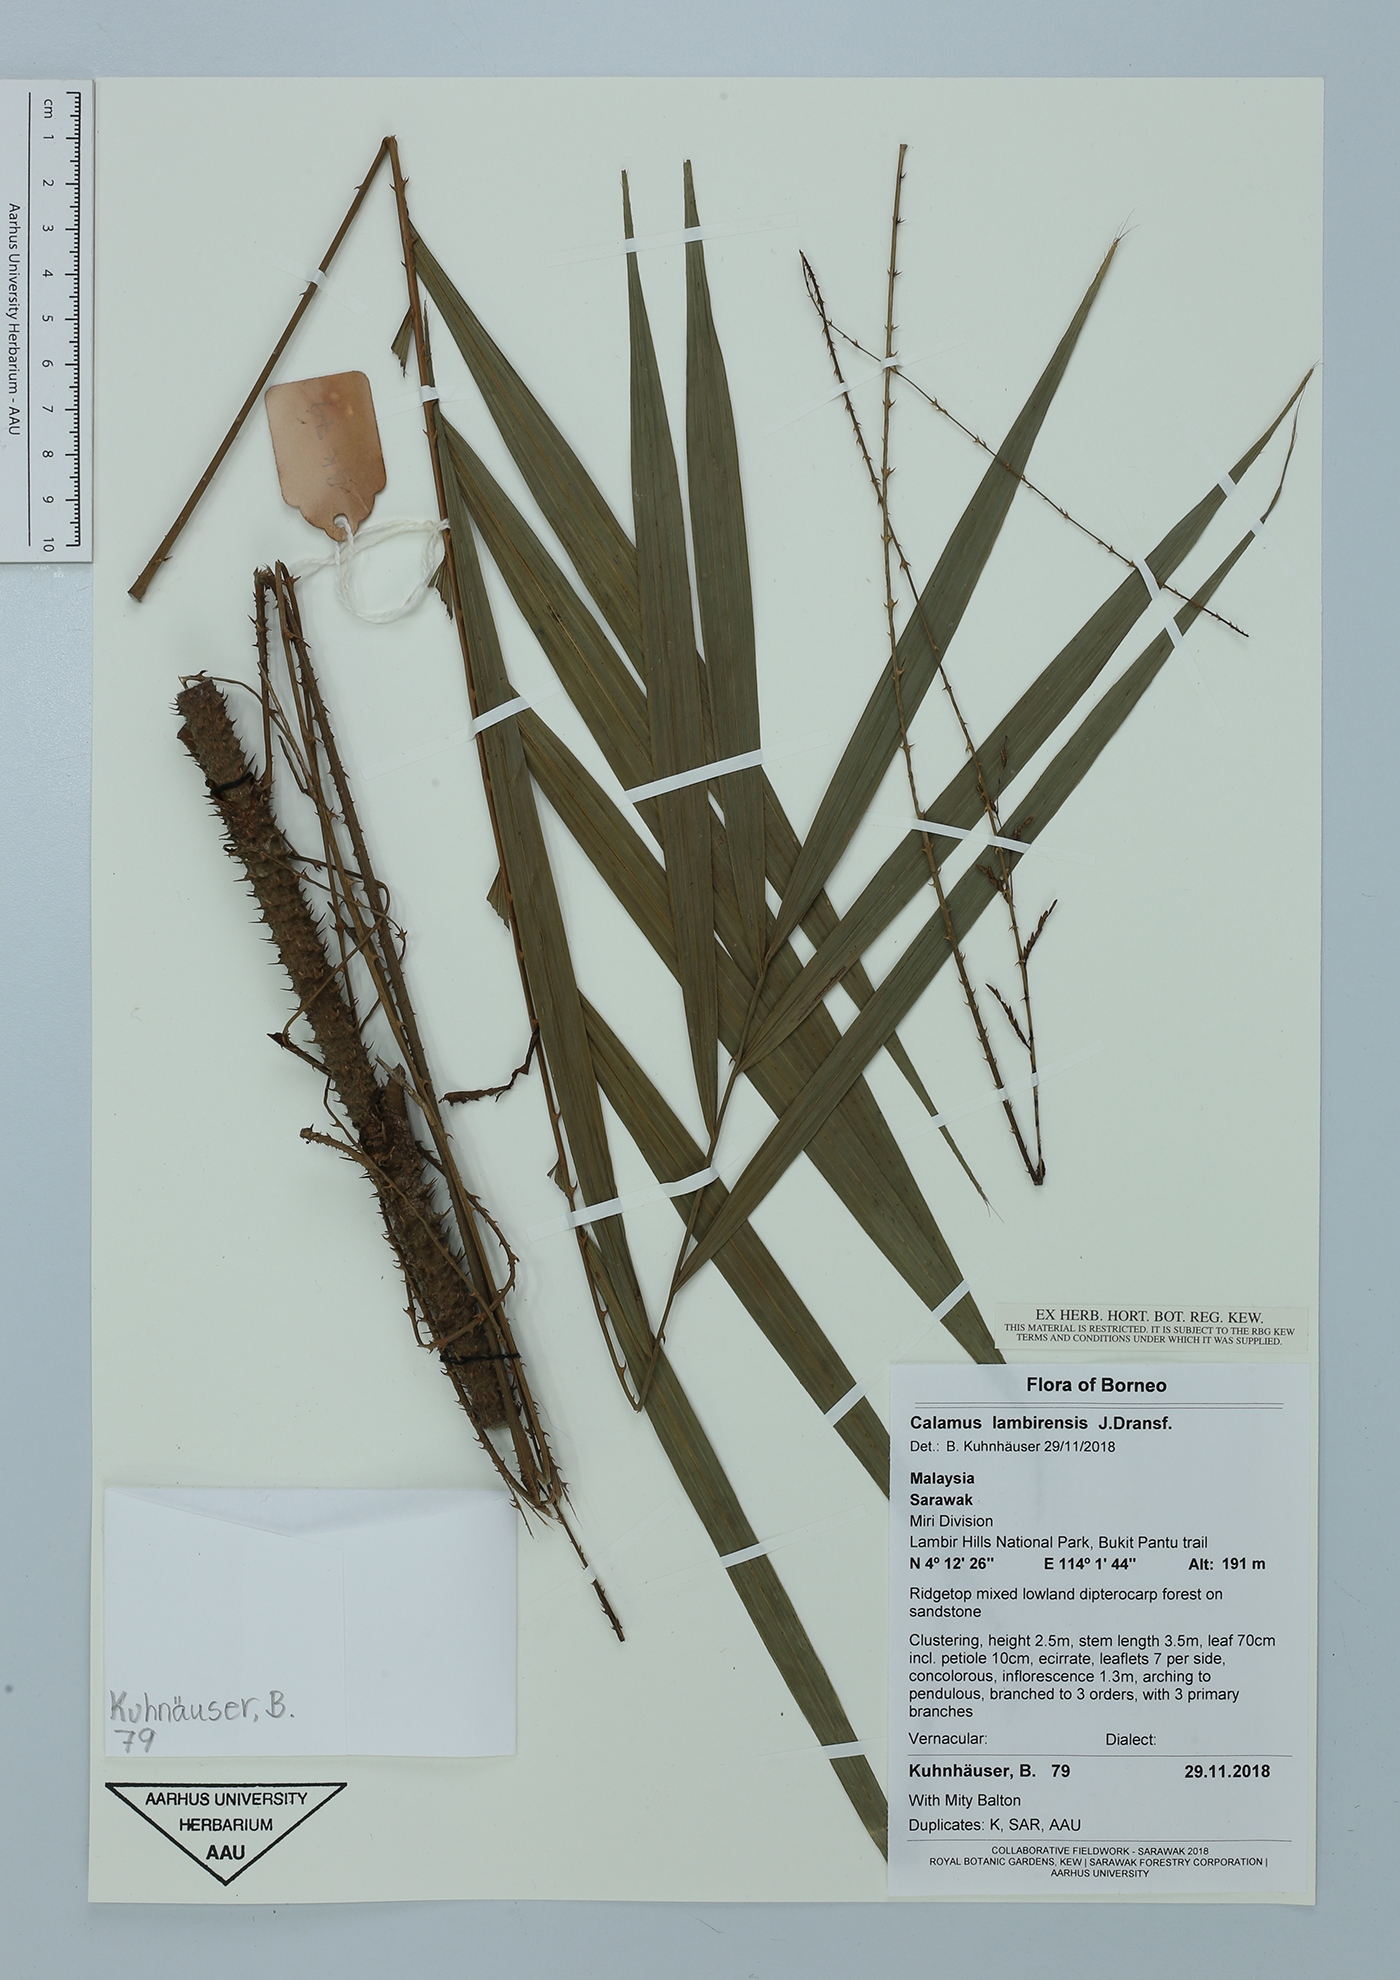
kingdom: Plantae
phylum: Tracheophyta
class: Liliopsida
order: Arecales
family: Arecaceae
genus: Calamus
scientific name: Calamus lambirensis
